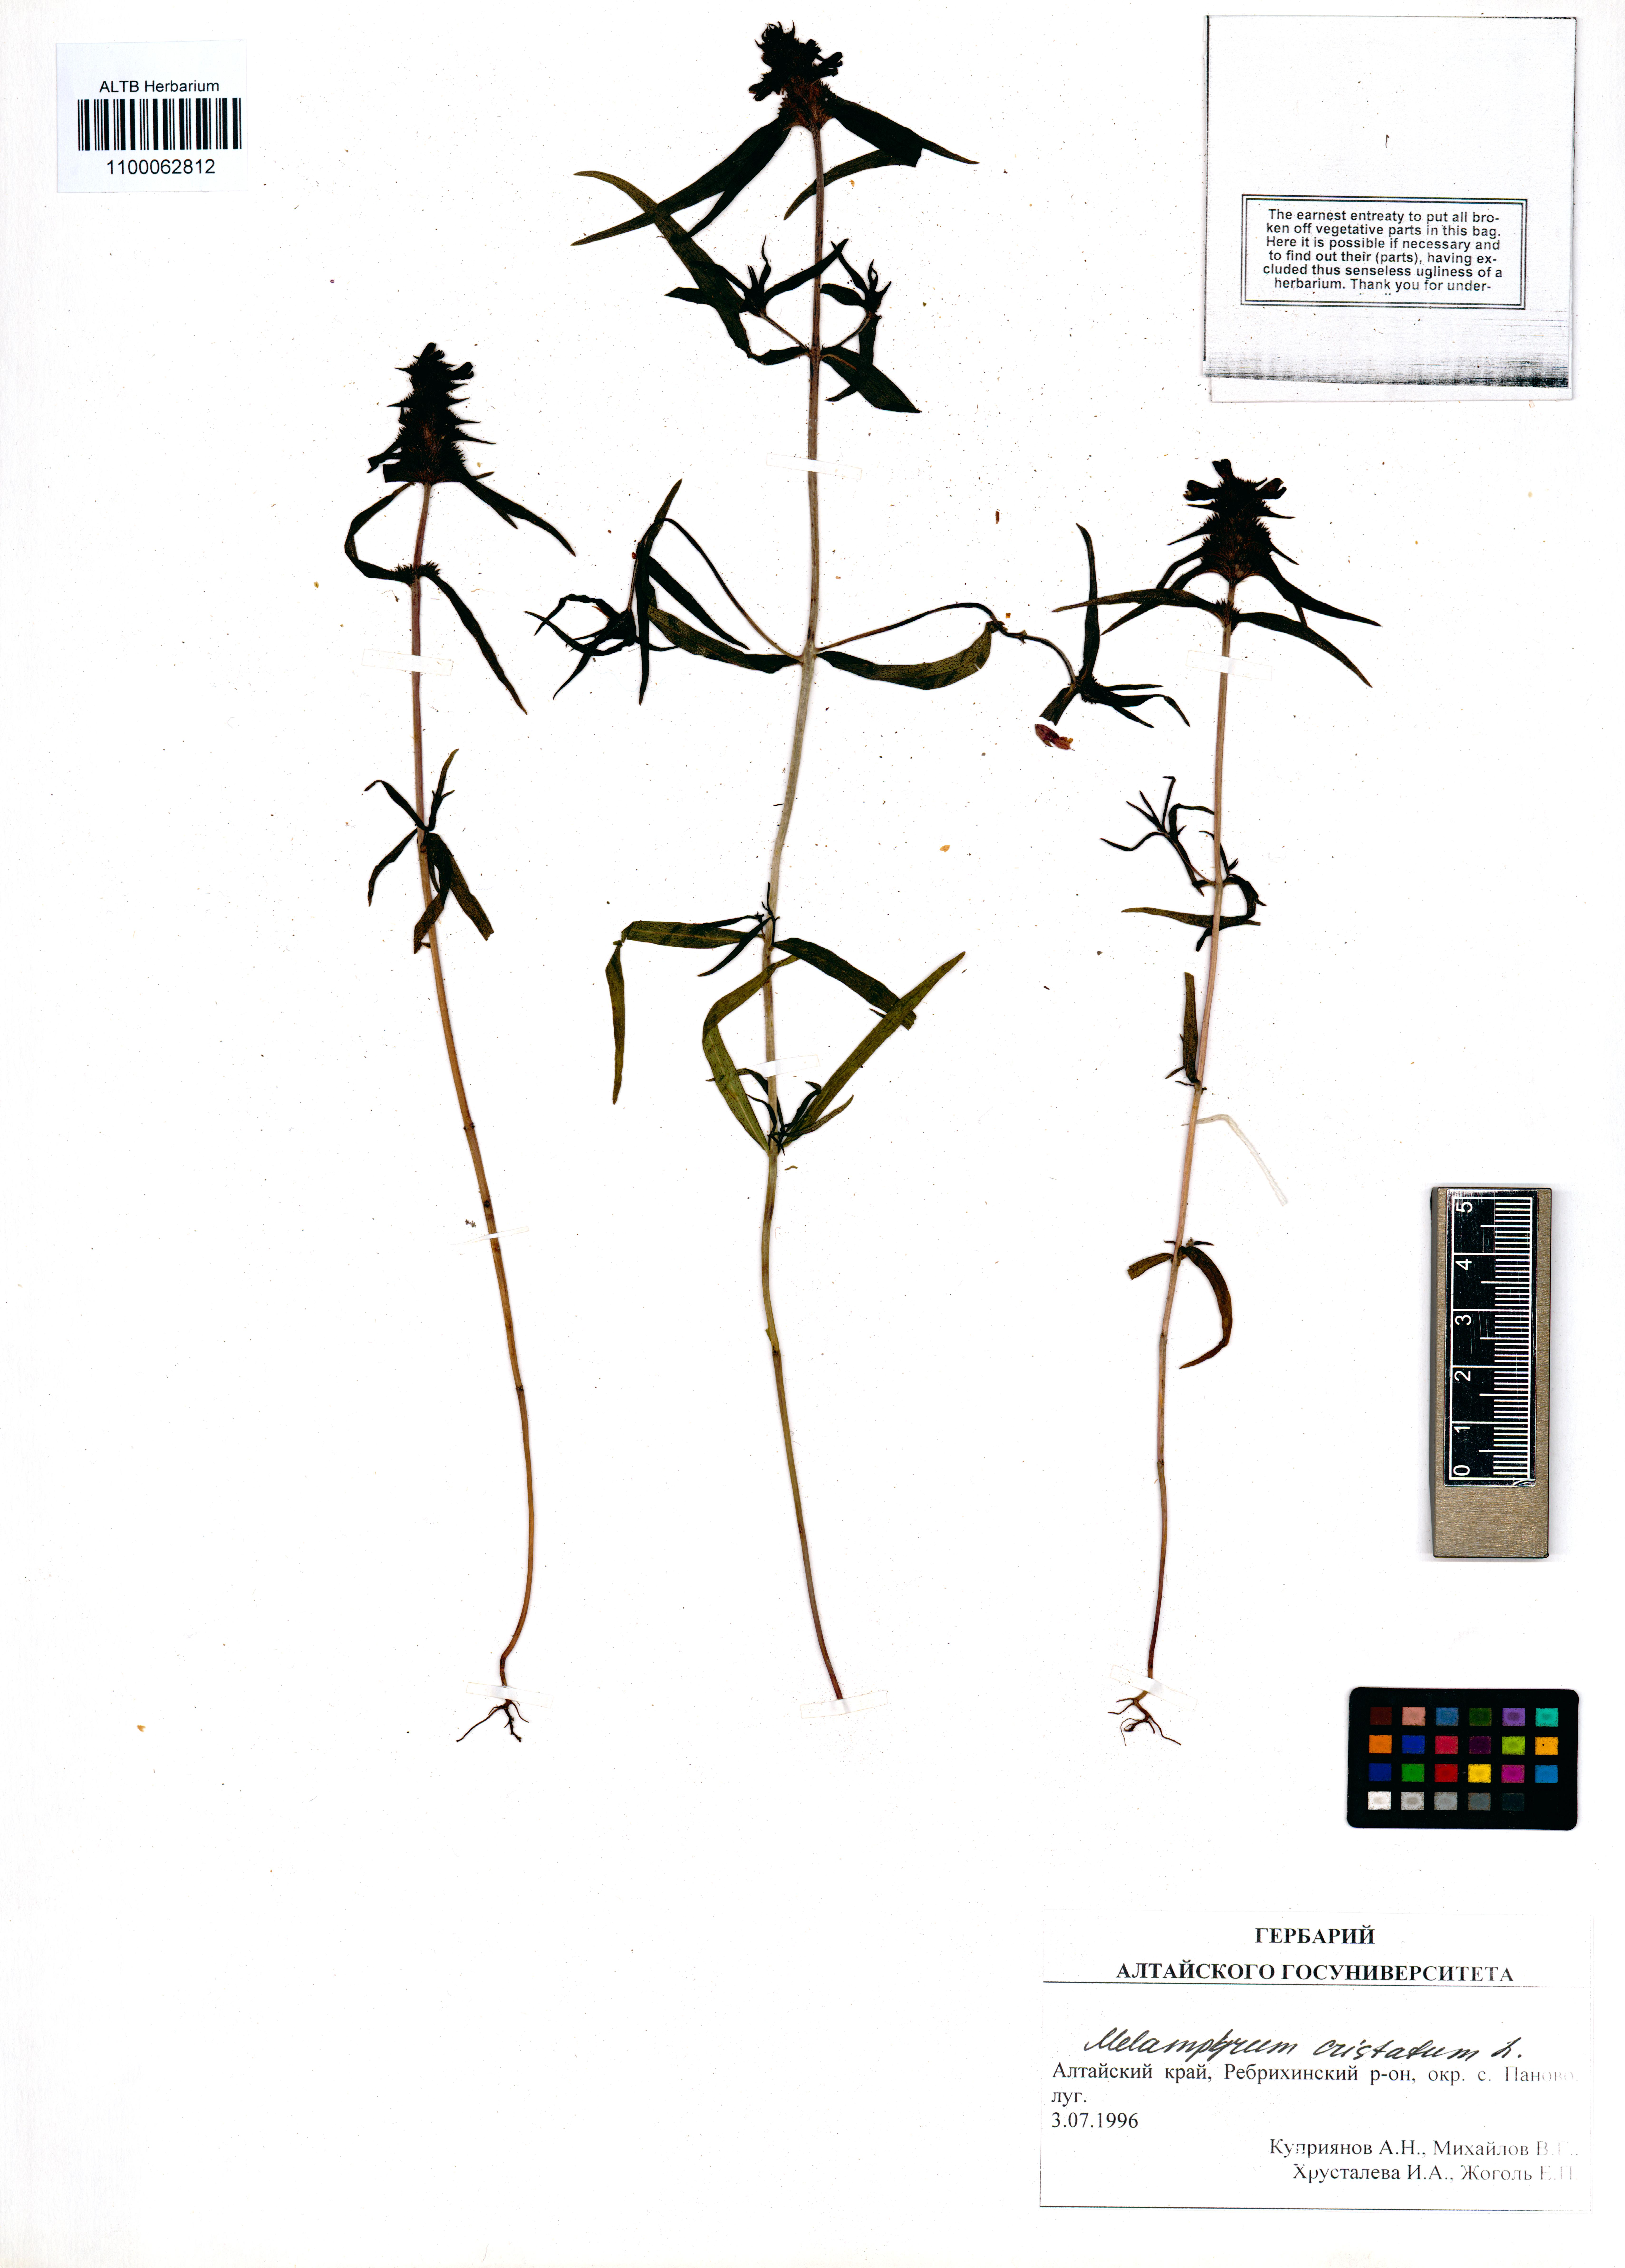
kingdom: Plantae
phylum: Tracheophyta
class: Magnoliopsida
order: Lamiales
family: Orobanchaceae
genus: Melampyrum
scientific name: Melampyrum cristatum
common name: Crested cow-wheat
